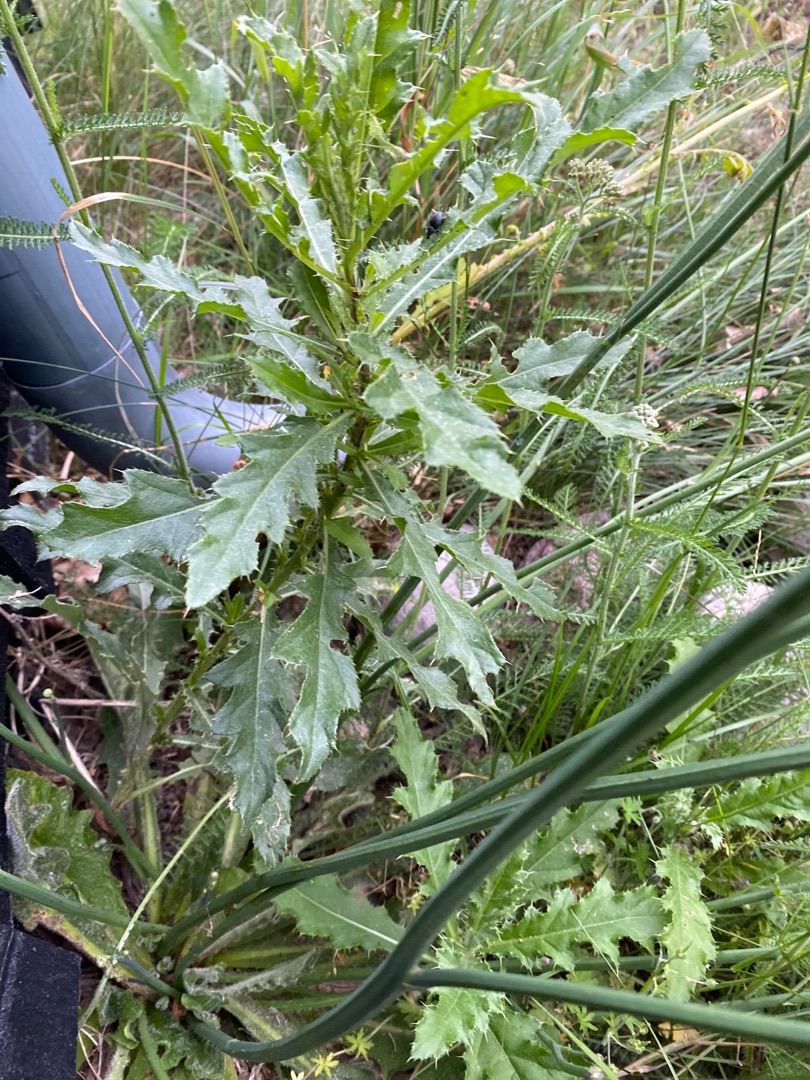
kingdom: Plantae
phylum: Tracheophyta
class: Magnoliopsida
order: Asterales
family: Asteraceae
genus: Cirsium
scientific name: Cirsium arvense
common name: Ager-tidsel
